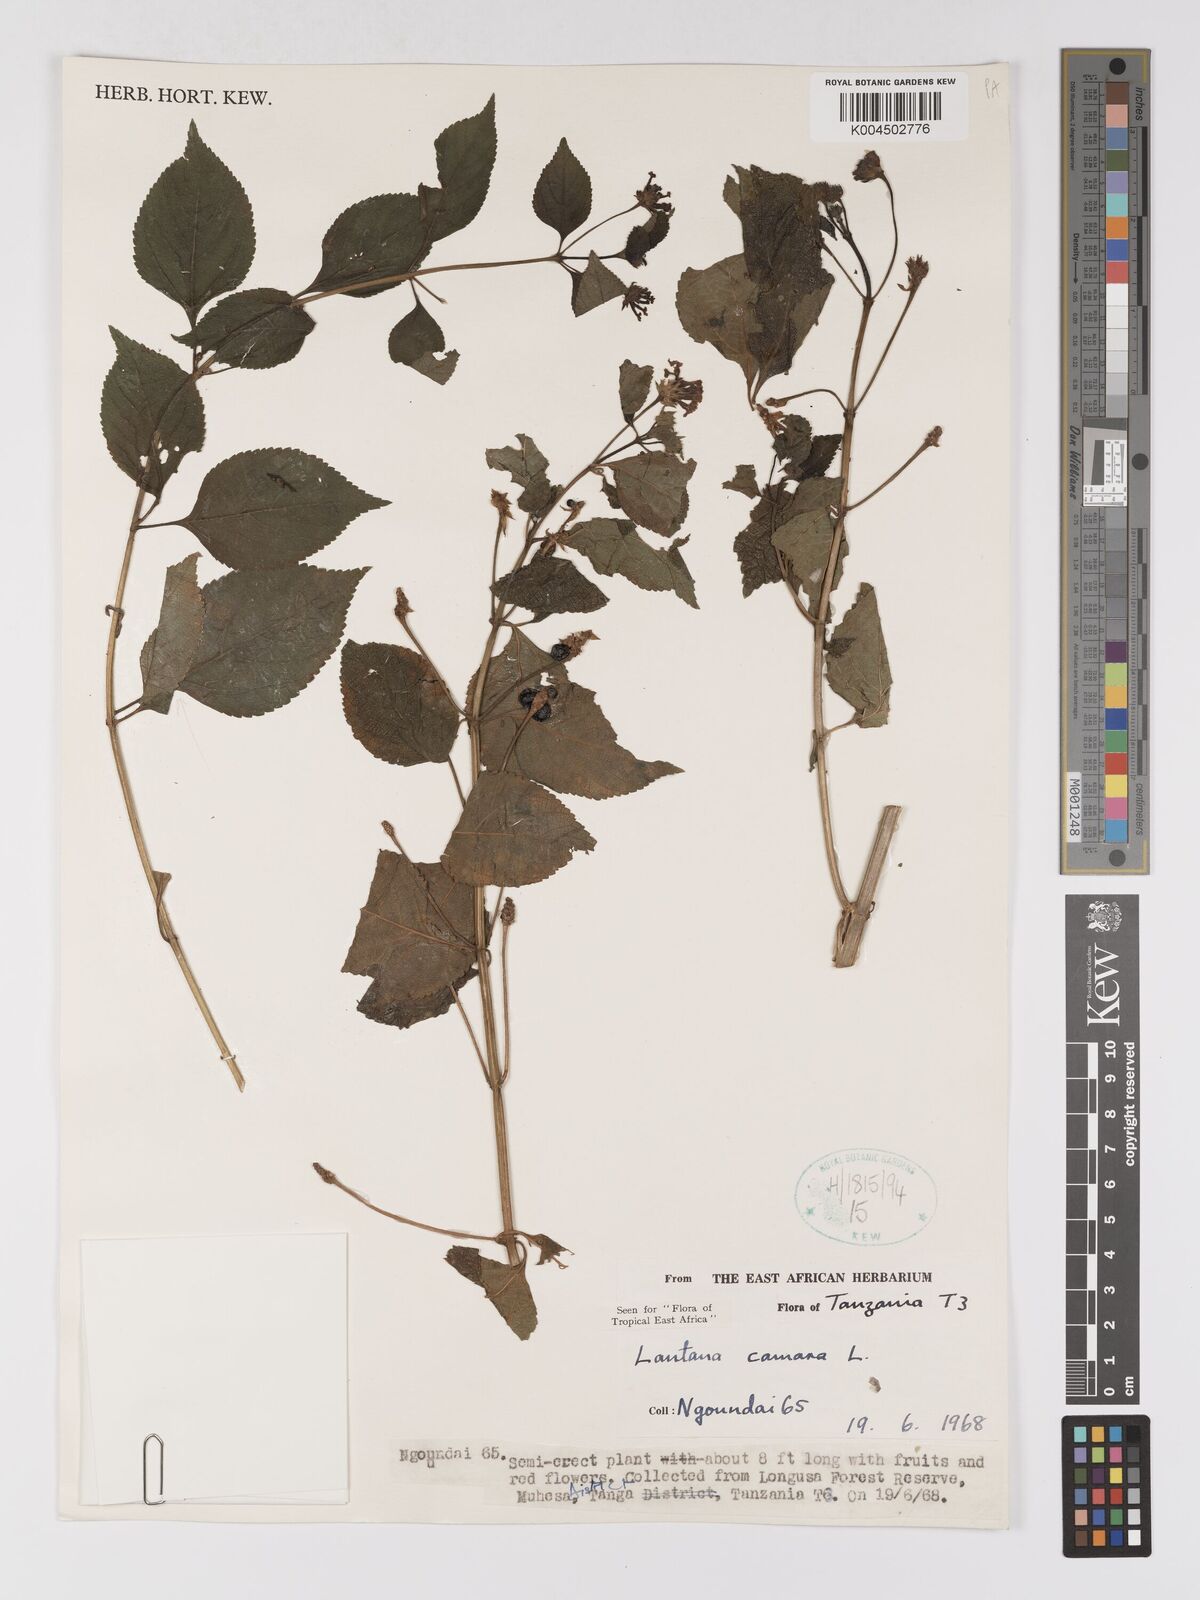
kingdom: Plantae
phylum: Tracheophyta
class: Magnoliopsida
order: Lamiales
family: Verbenaceae
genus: Lantana
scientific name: Lantana camara
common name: Lantana
